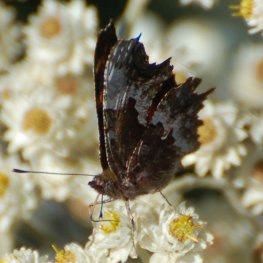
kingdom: Animalia
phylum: Arthropoda
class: Insecta
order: Lepidoptera
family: Nymphalidae
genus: Polygonia
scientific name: Polygonia gracilis
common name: Hoary Comma
